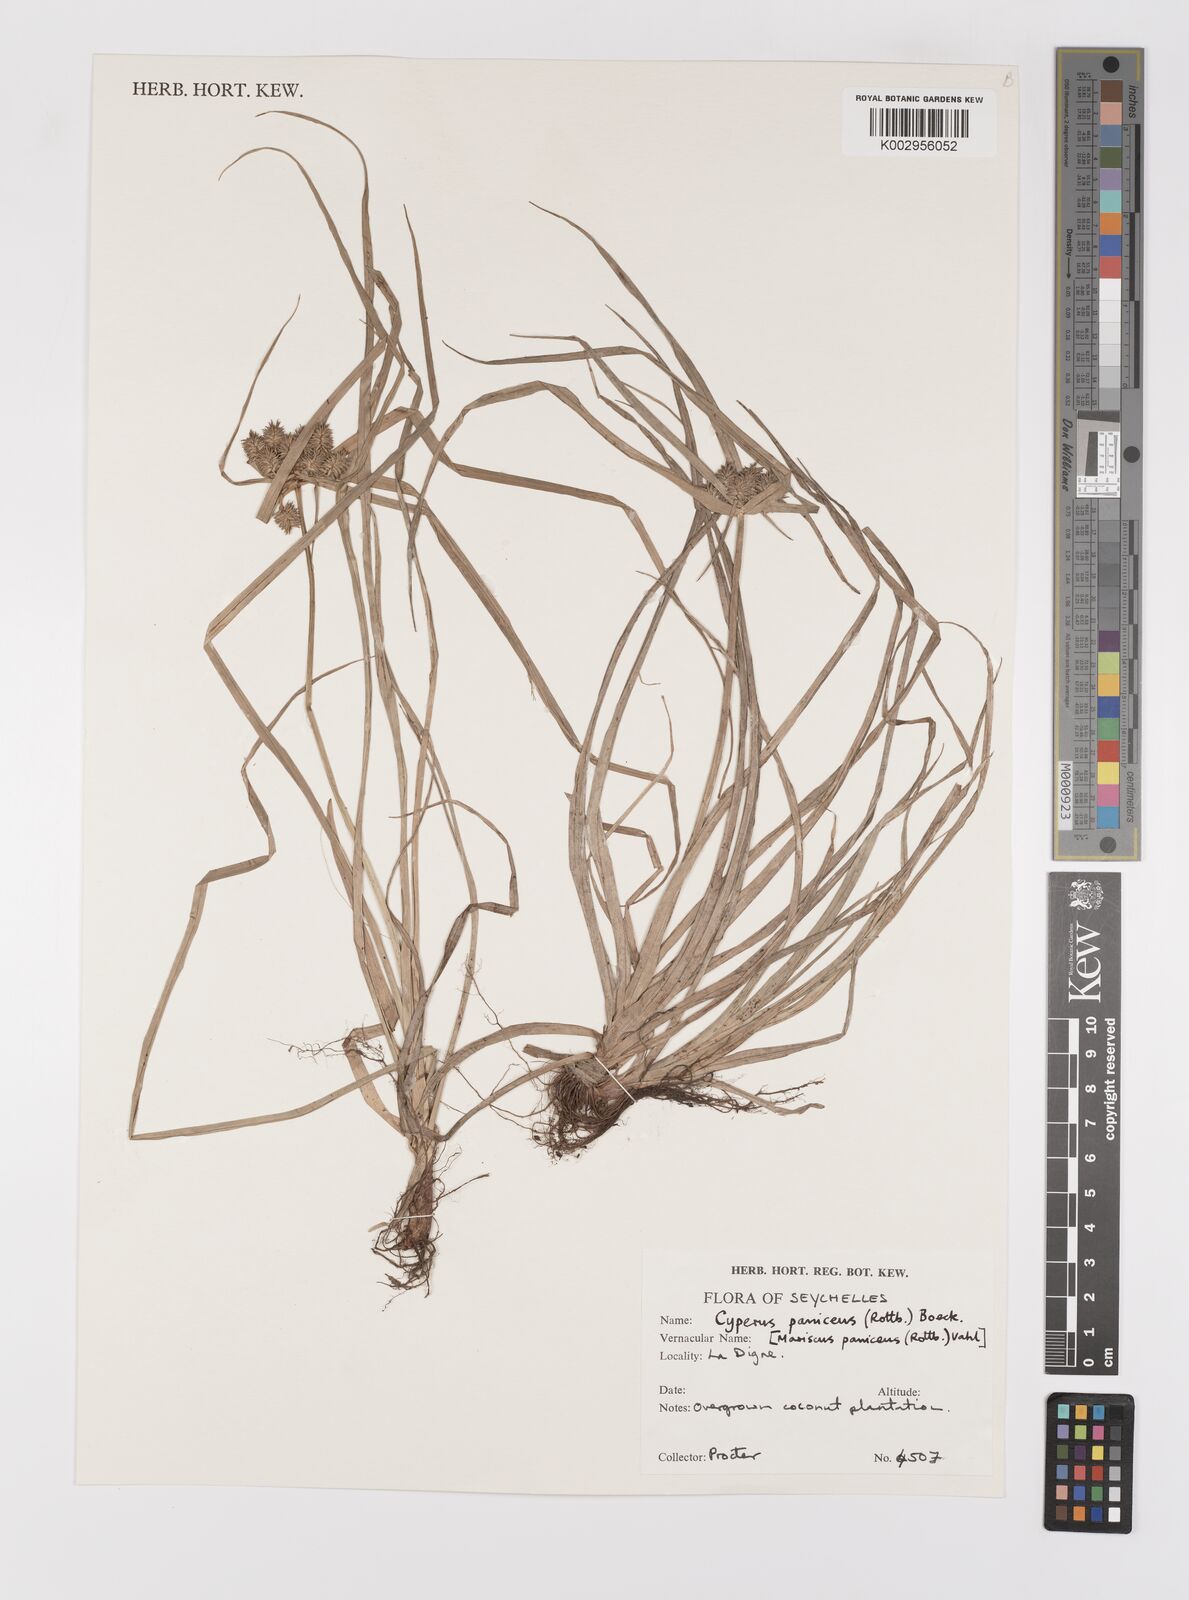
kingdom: Plantae
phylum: Tracheophyta
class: Liliopsida
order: Poales
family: Cyperaceae
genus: Cyperus
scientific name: Cyperus paniceus
